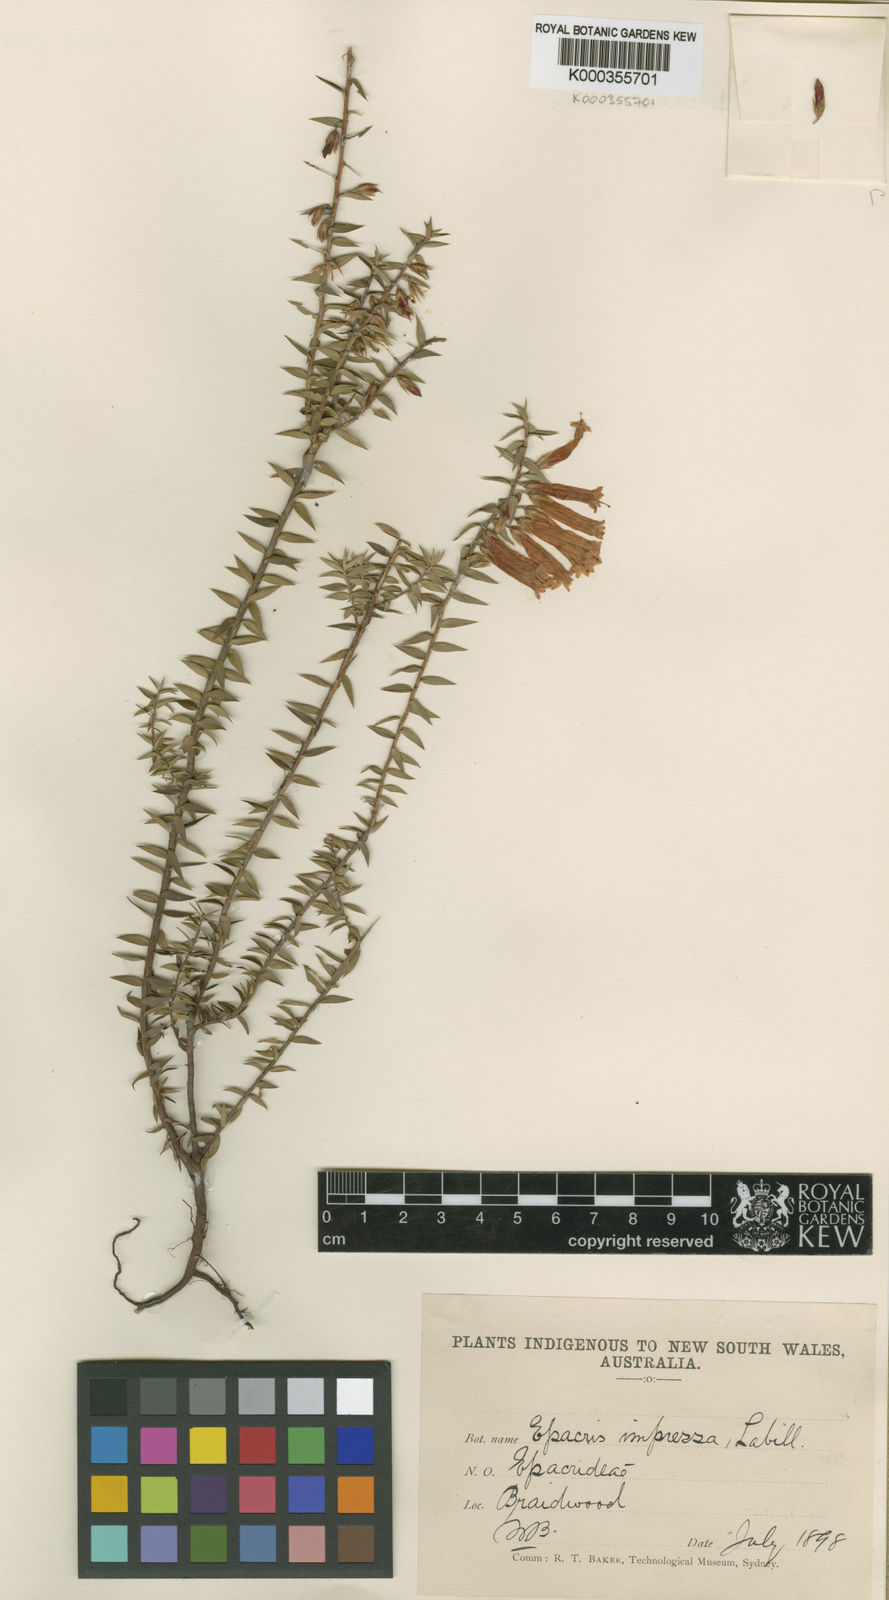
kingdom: Plantae
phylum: Tracheophyta
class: Magnoliopsida
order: Ericales
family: Ericaceae
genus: Epacris
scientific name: Epacris impressa
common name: Common-heath
